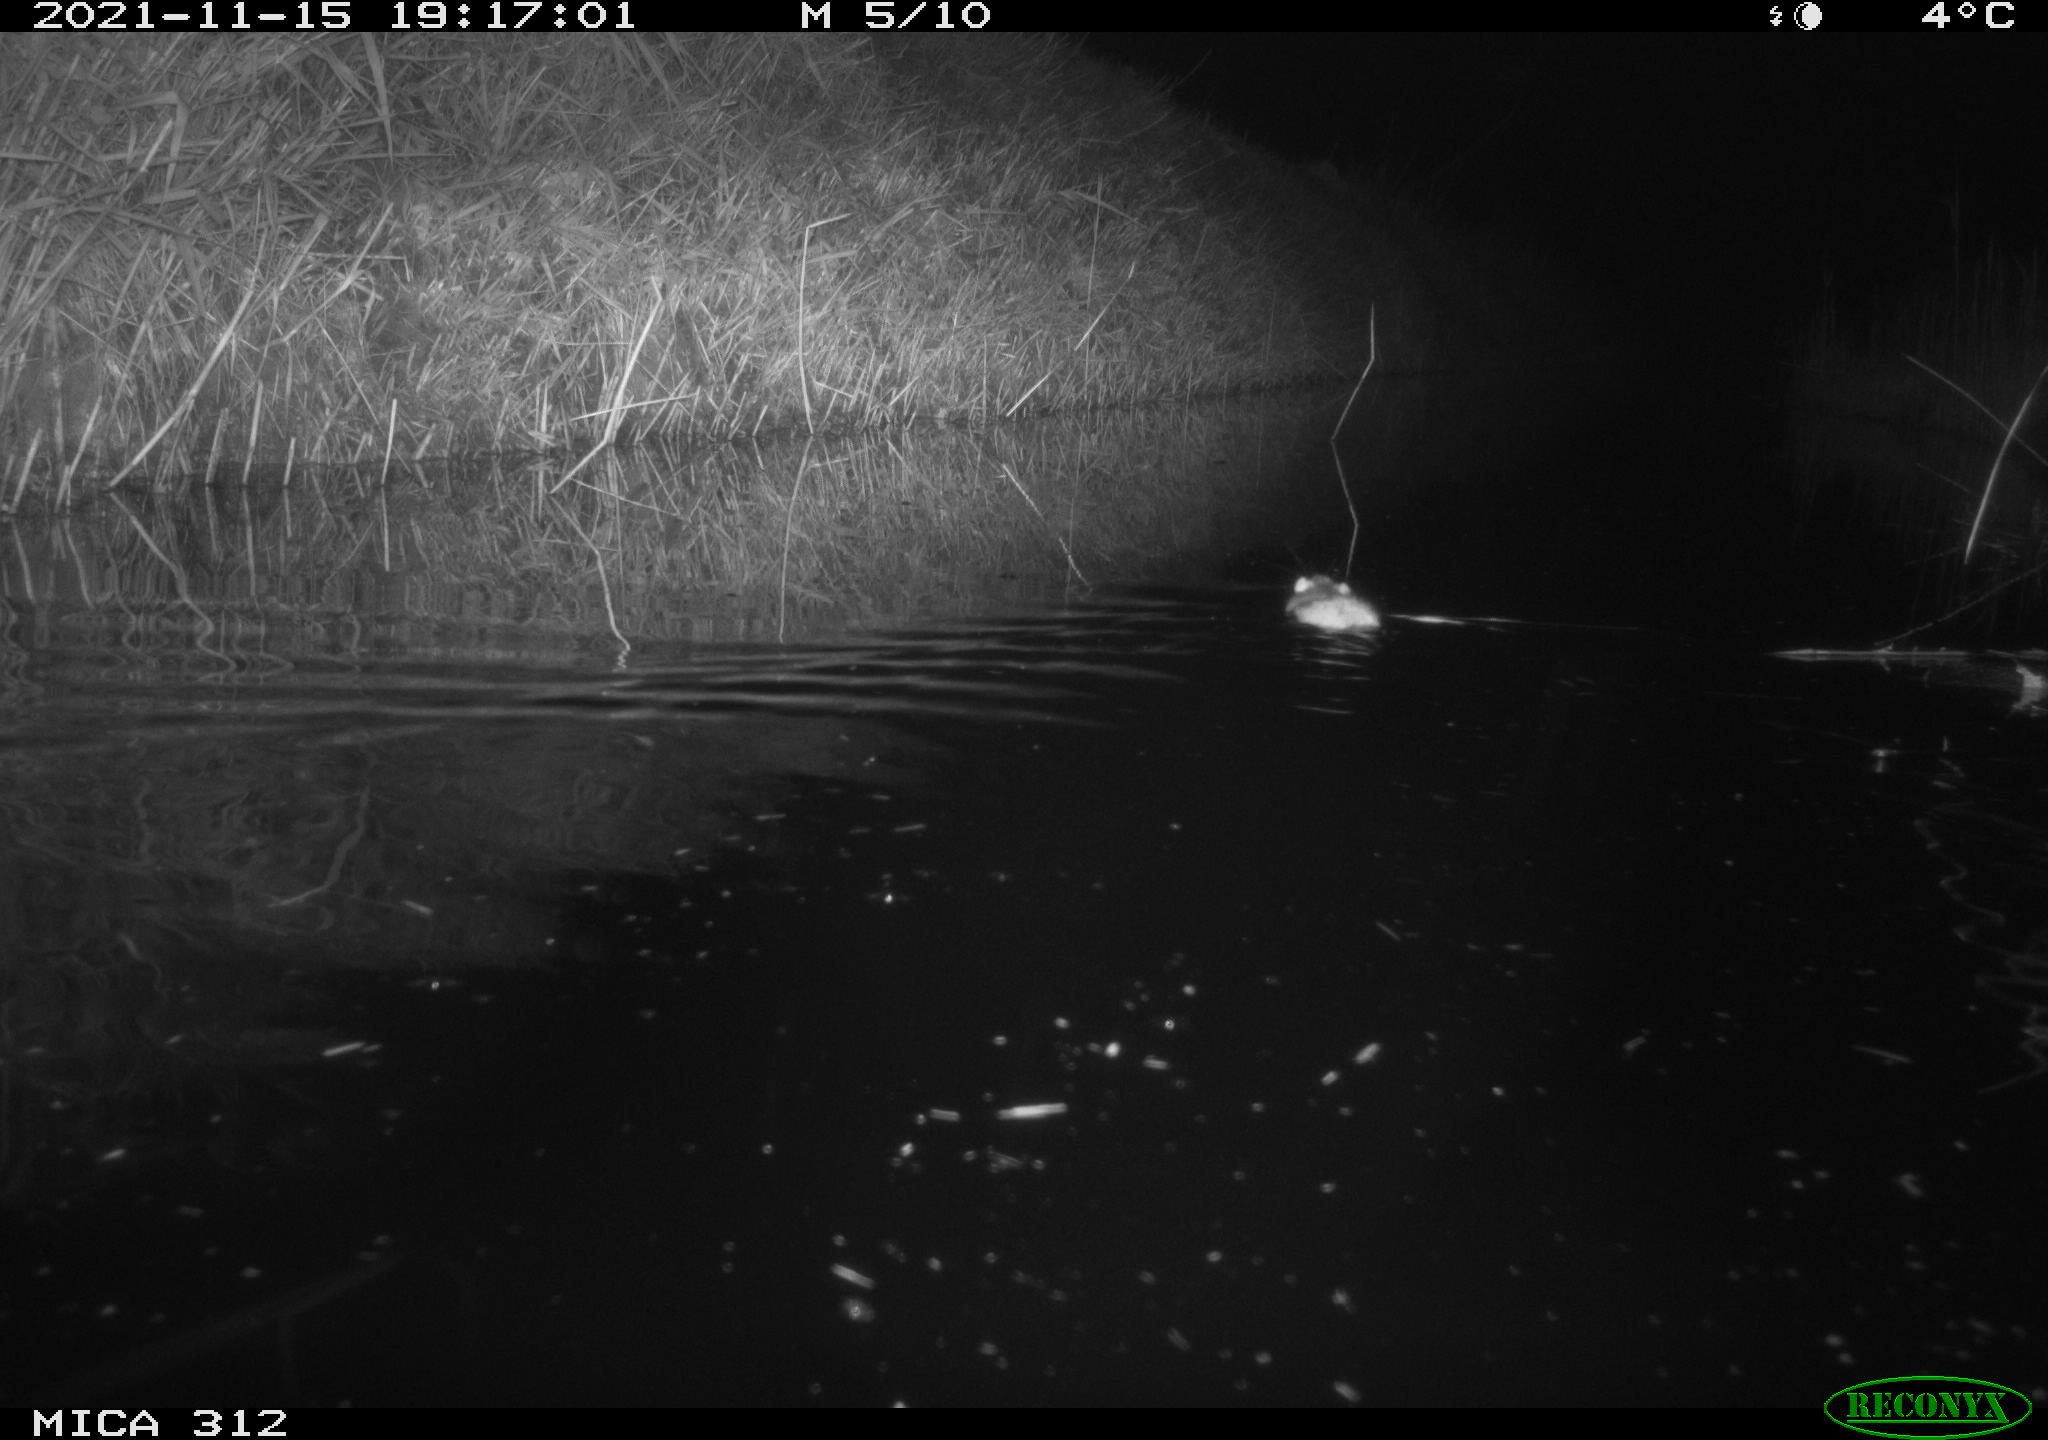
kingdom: Animalia
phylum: Chordata
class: Mammalia
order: Rodentia
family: Muridae
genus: Rattus
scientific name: Rattus norvegicus
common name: Brown rat
